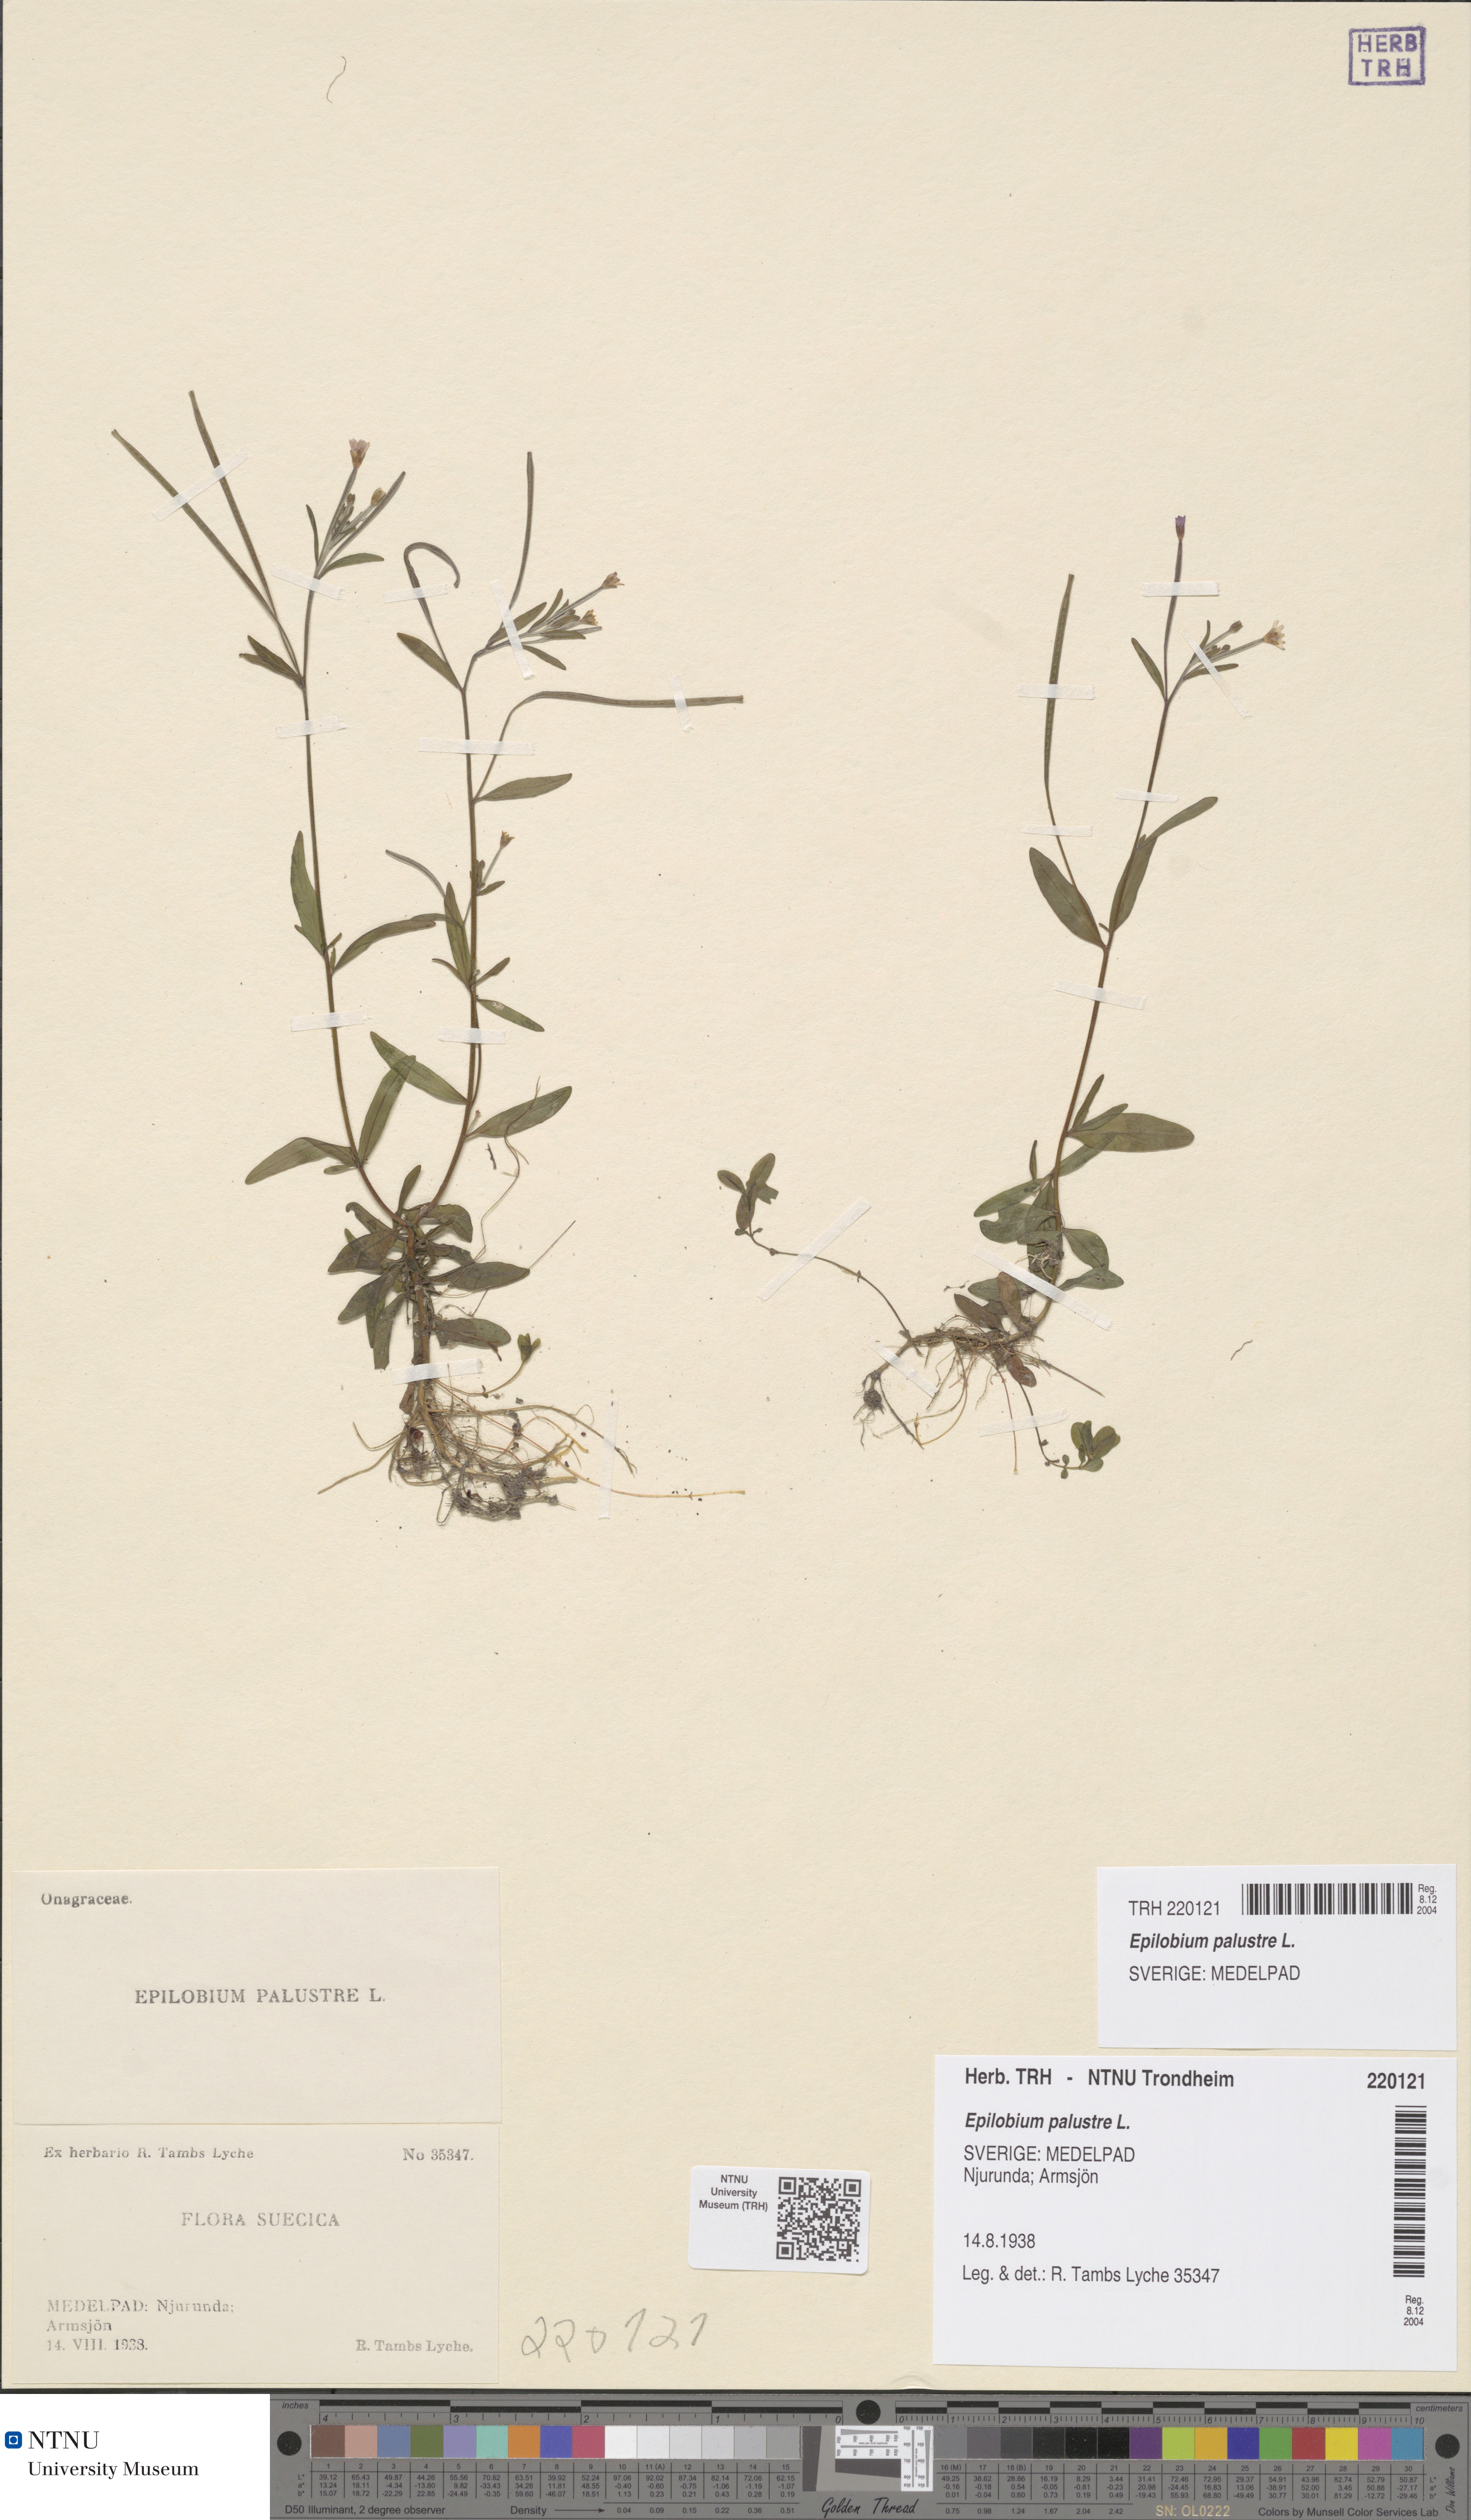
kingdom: Plantae
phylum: Tracheophyta
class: Magnoliopsida
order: Myrtales
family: Onagraceae
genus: Epilobium
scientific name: Epilobium palustre
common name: Marsh willowherb
